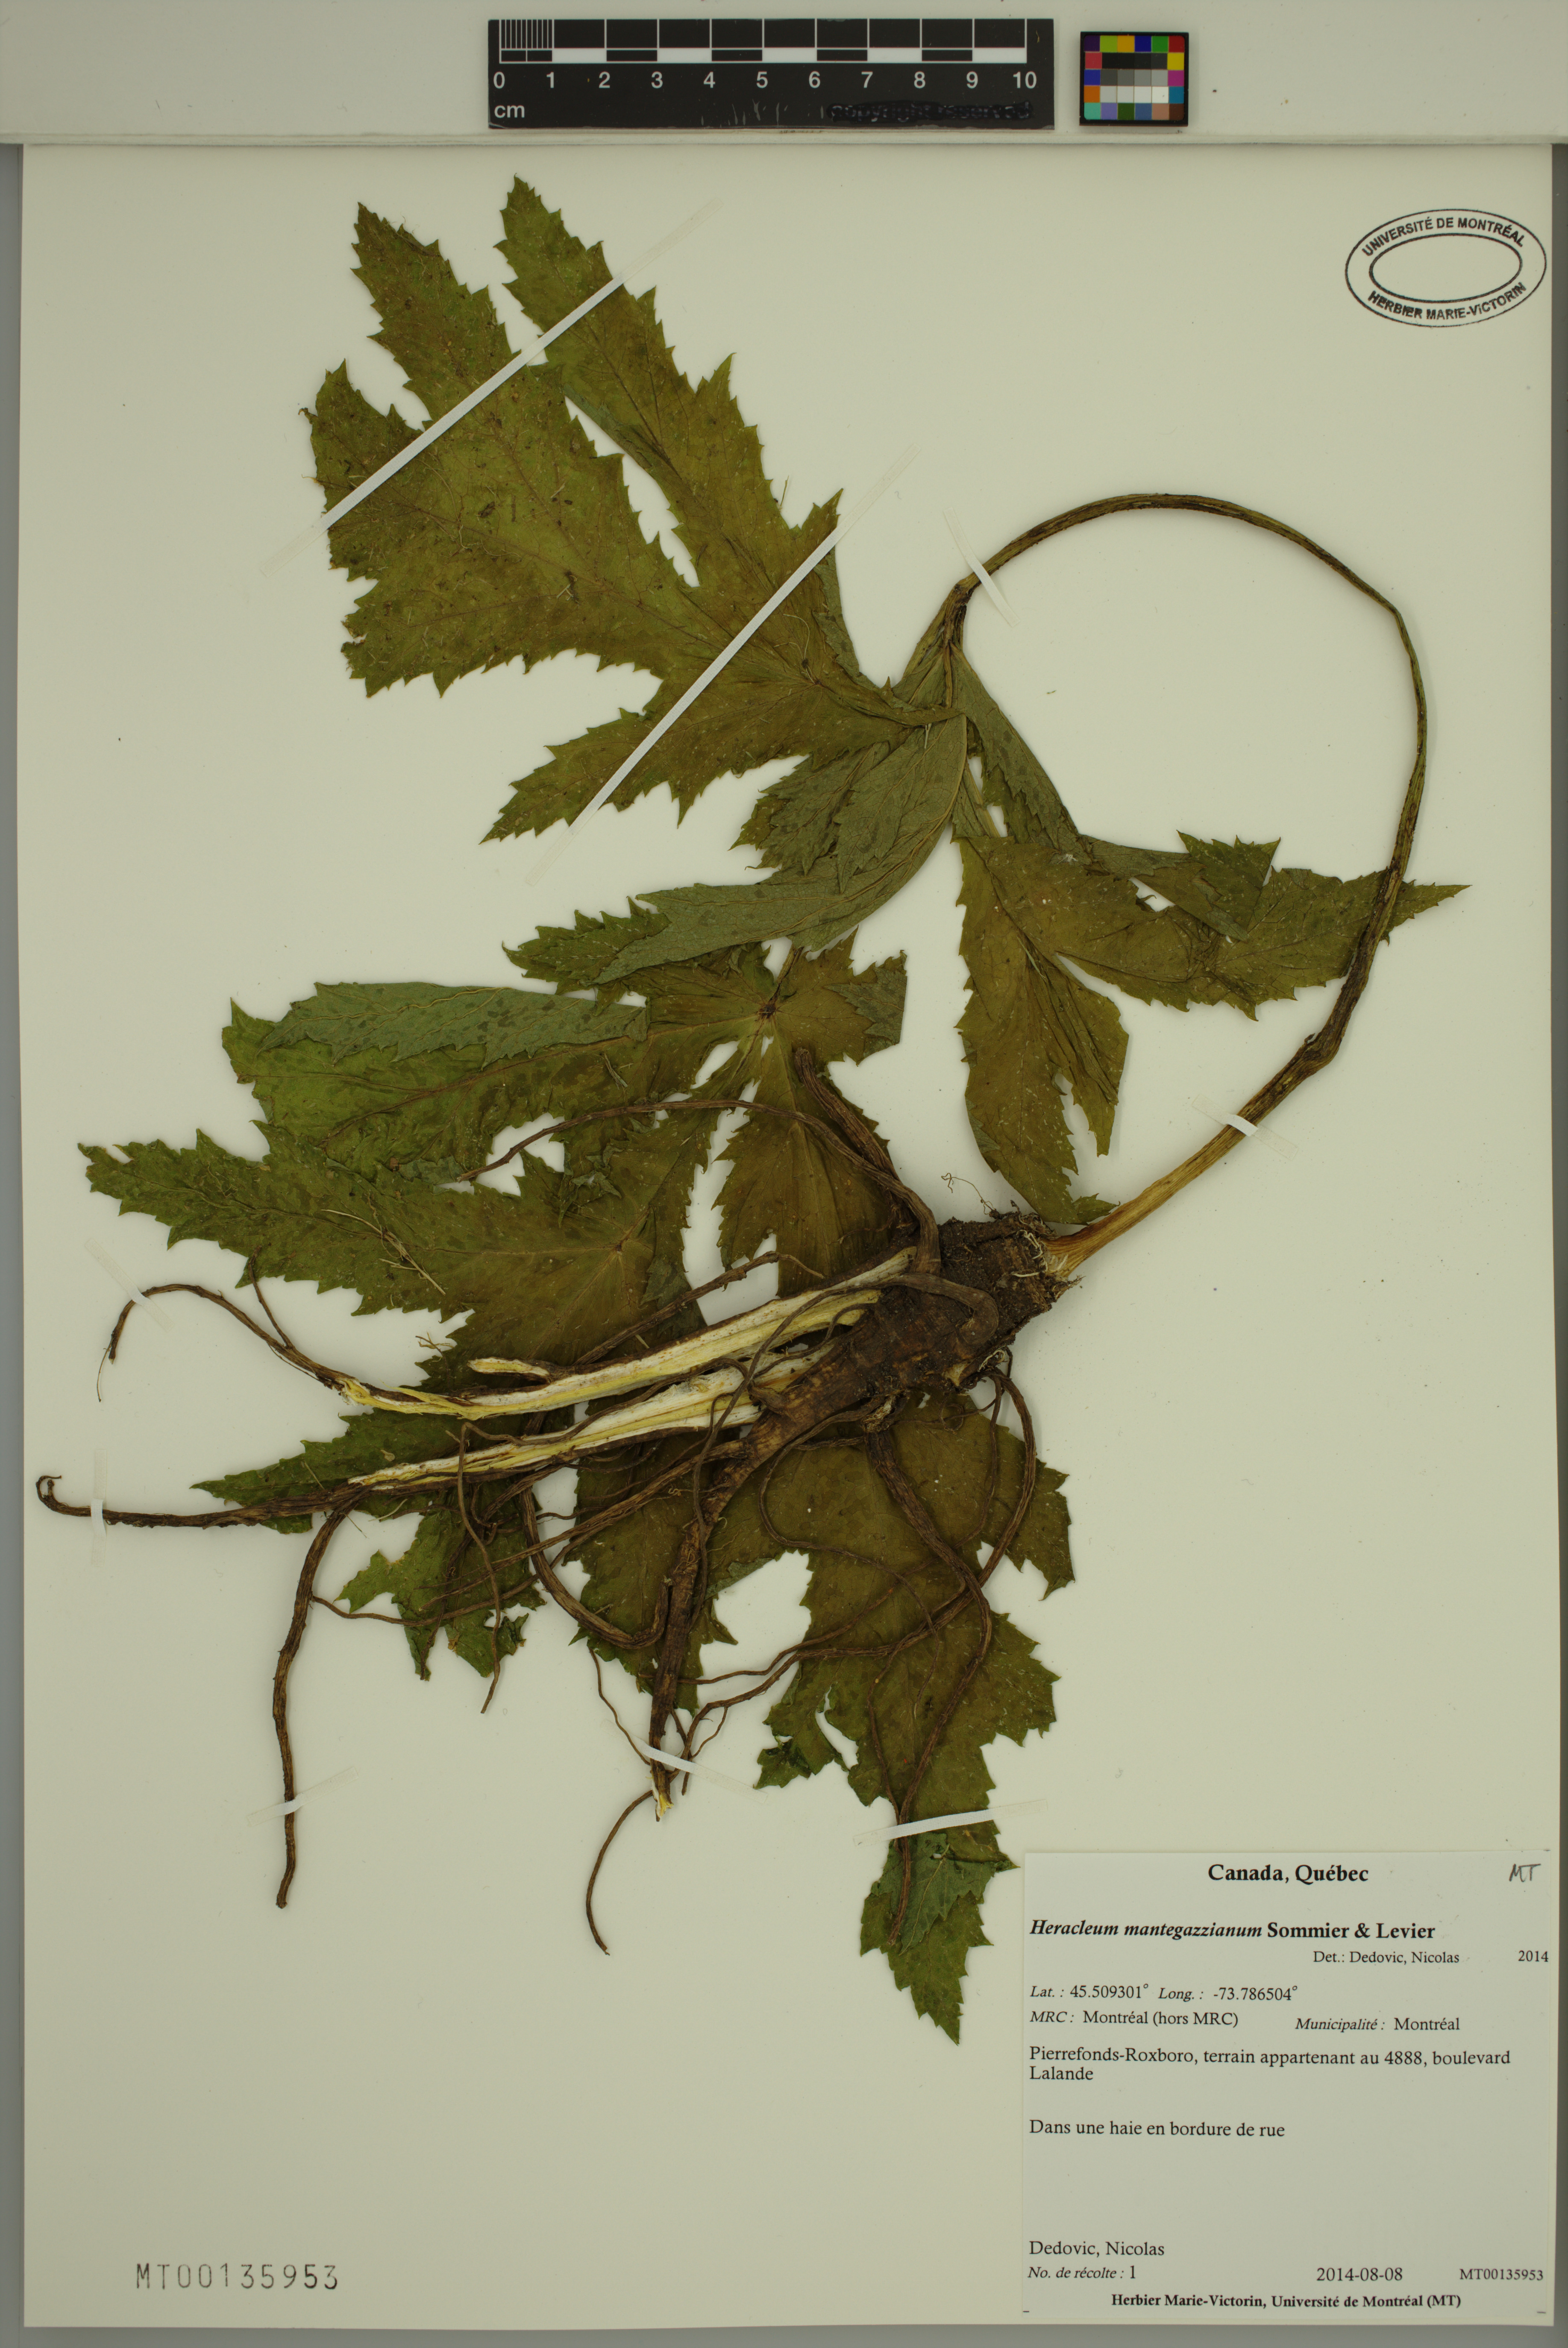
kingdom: Plantae
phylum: Tracheophyta
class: Magnoliopsida
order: Apiales
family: Apiaceae
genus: Heracleum
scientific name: Heracleum mantegazzianum
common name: Giant hogweed
